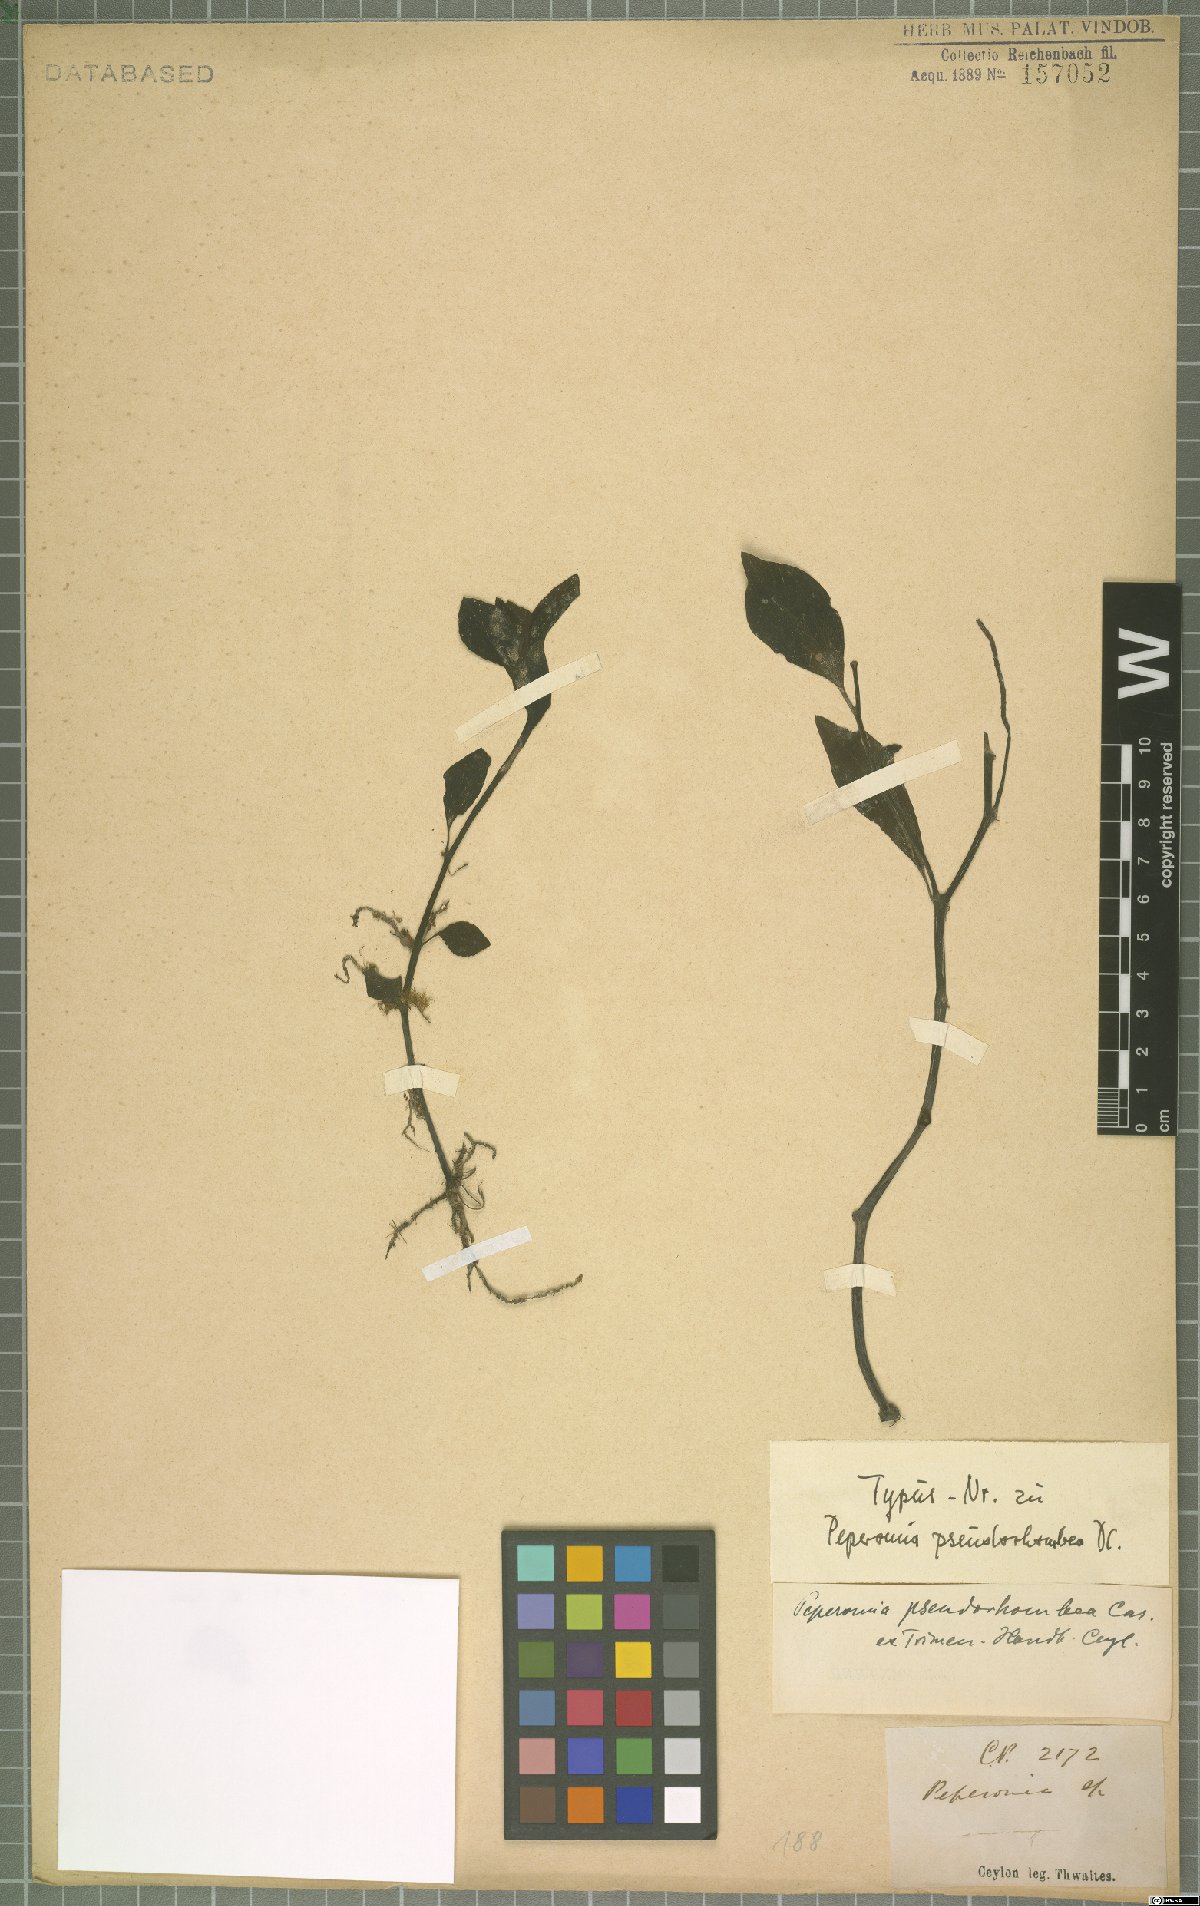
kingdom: Plantae
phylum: Tracheophyta
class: Magnoliopsida
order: Piperales
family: Piperaceae
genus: Peperomia
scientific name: Peperomia pseudorhombea
